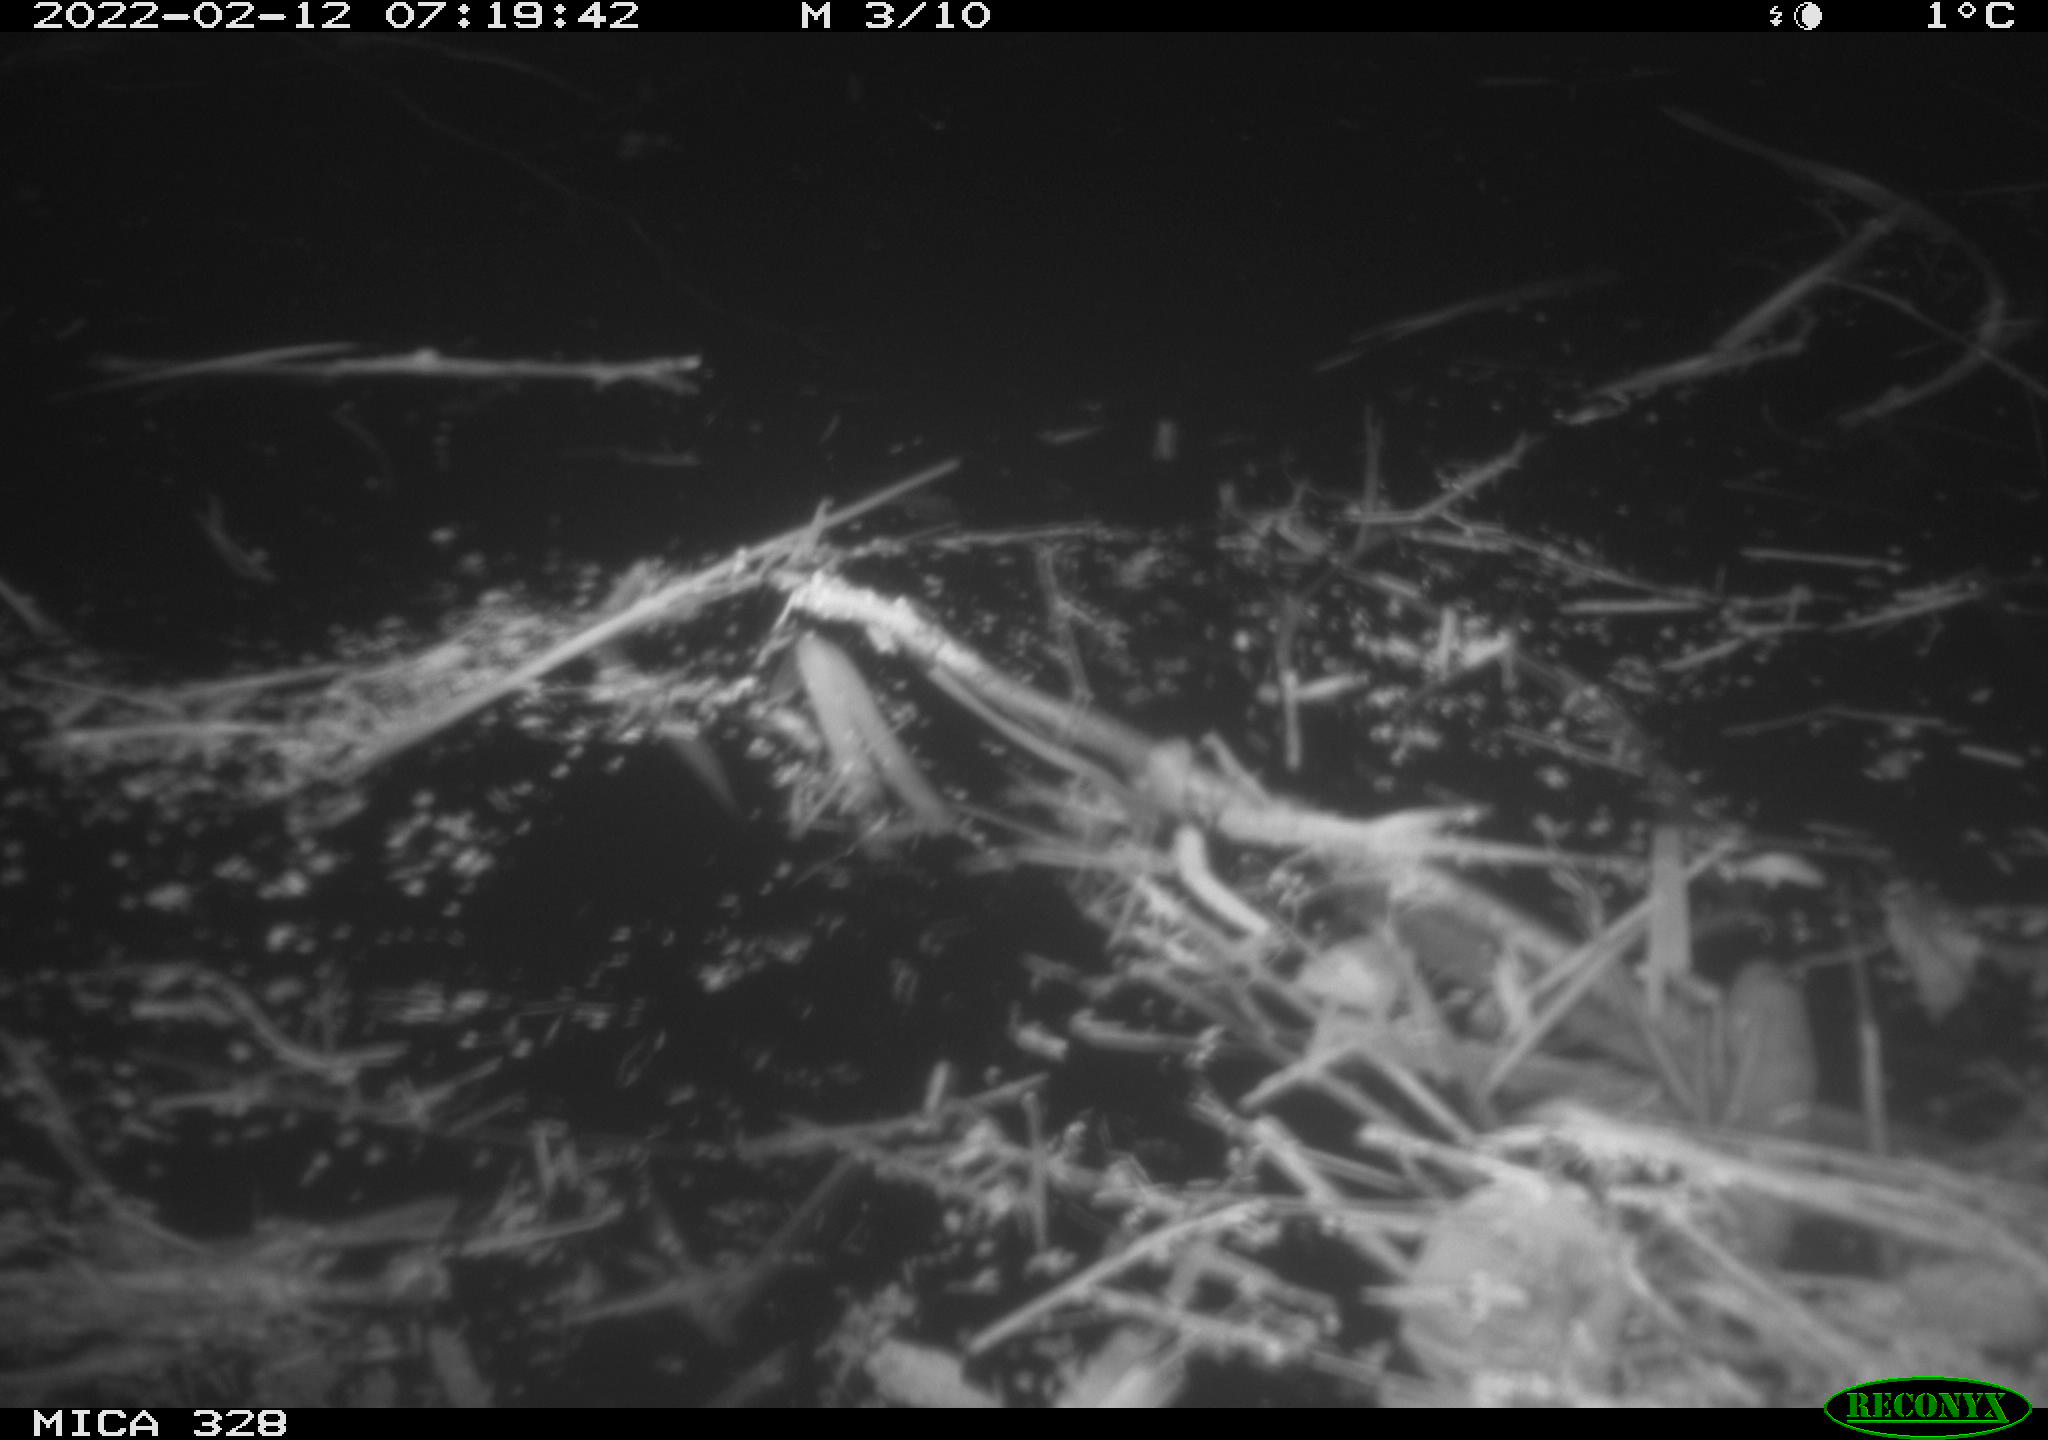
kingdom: Animalia
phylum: Chordata
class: Aves
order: Anseriformes
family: Anatidae
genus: Anas
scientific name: Anas platyrhynchos
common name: Mallard
